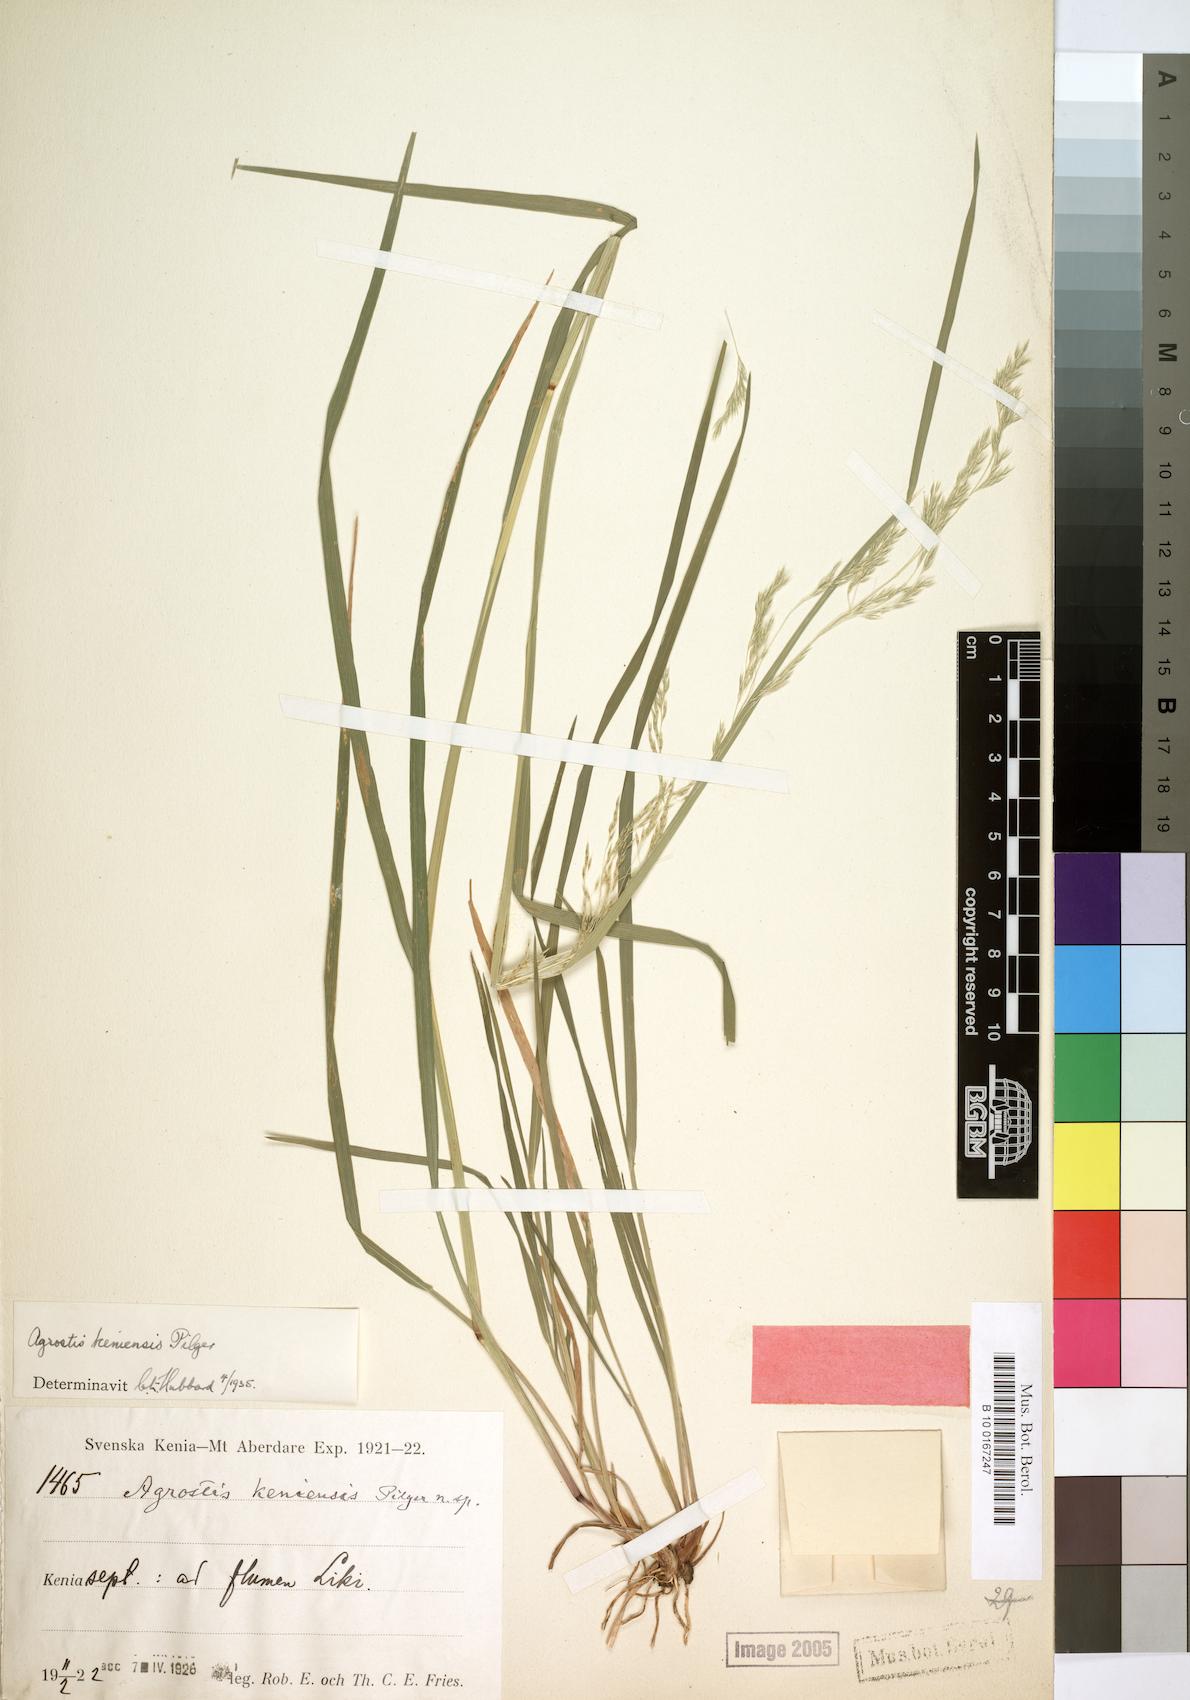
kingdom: Plantae
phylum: Tracheophyta
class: Liliopsida
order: Poales
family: Poaceae
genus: Agrostis
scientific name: Agrostis keniensis
